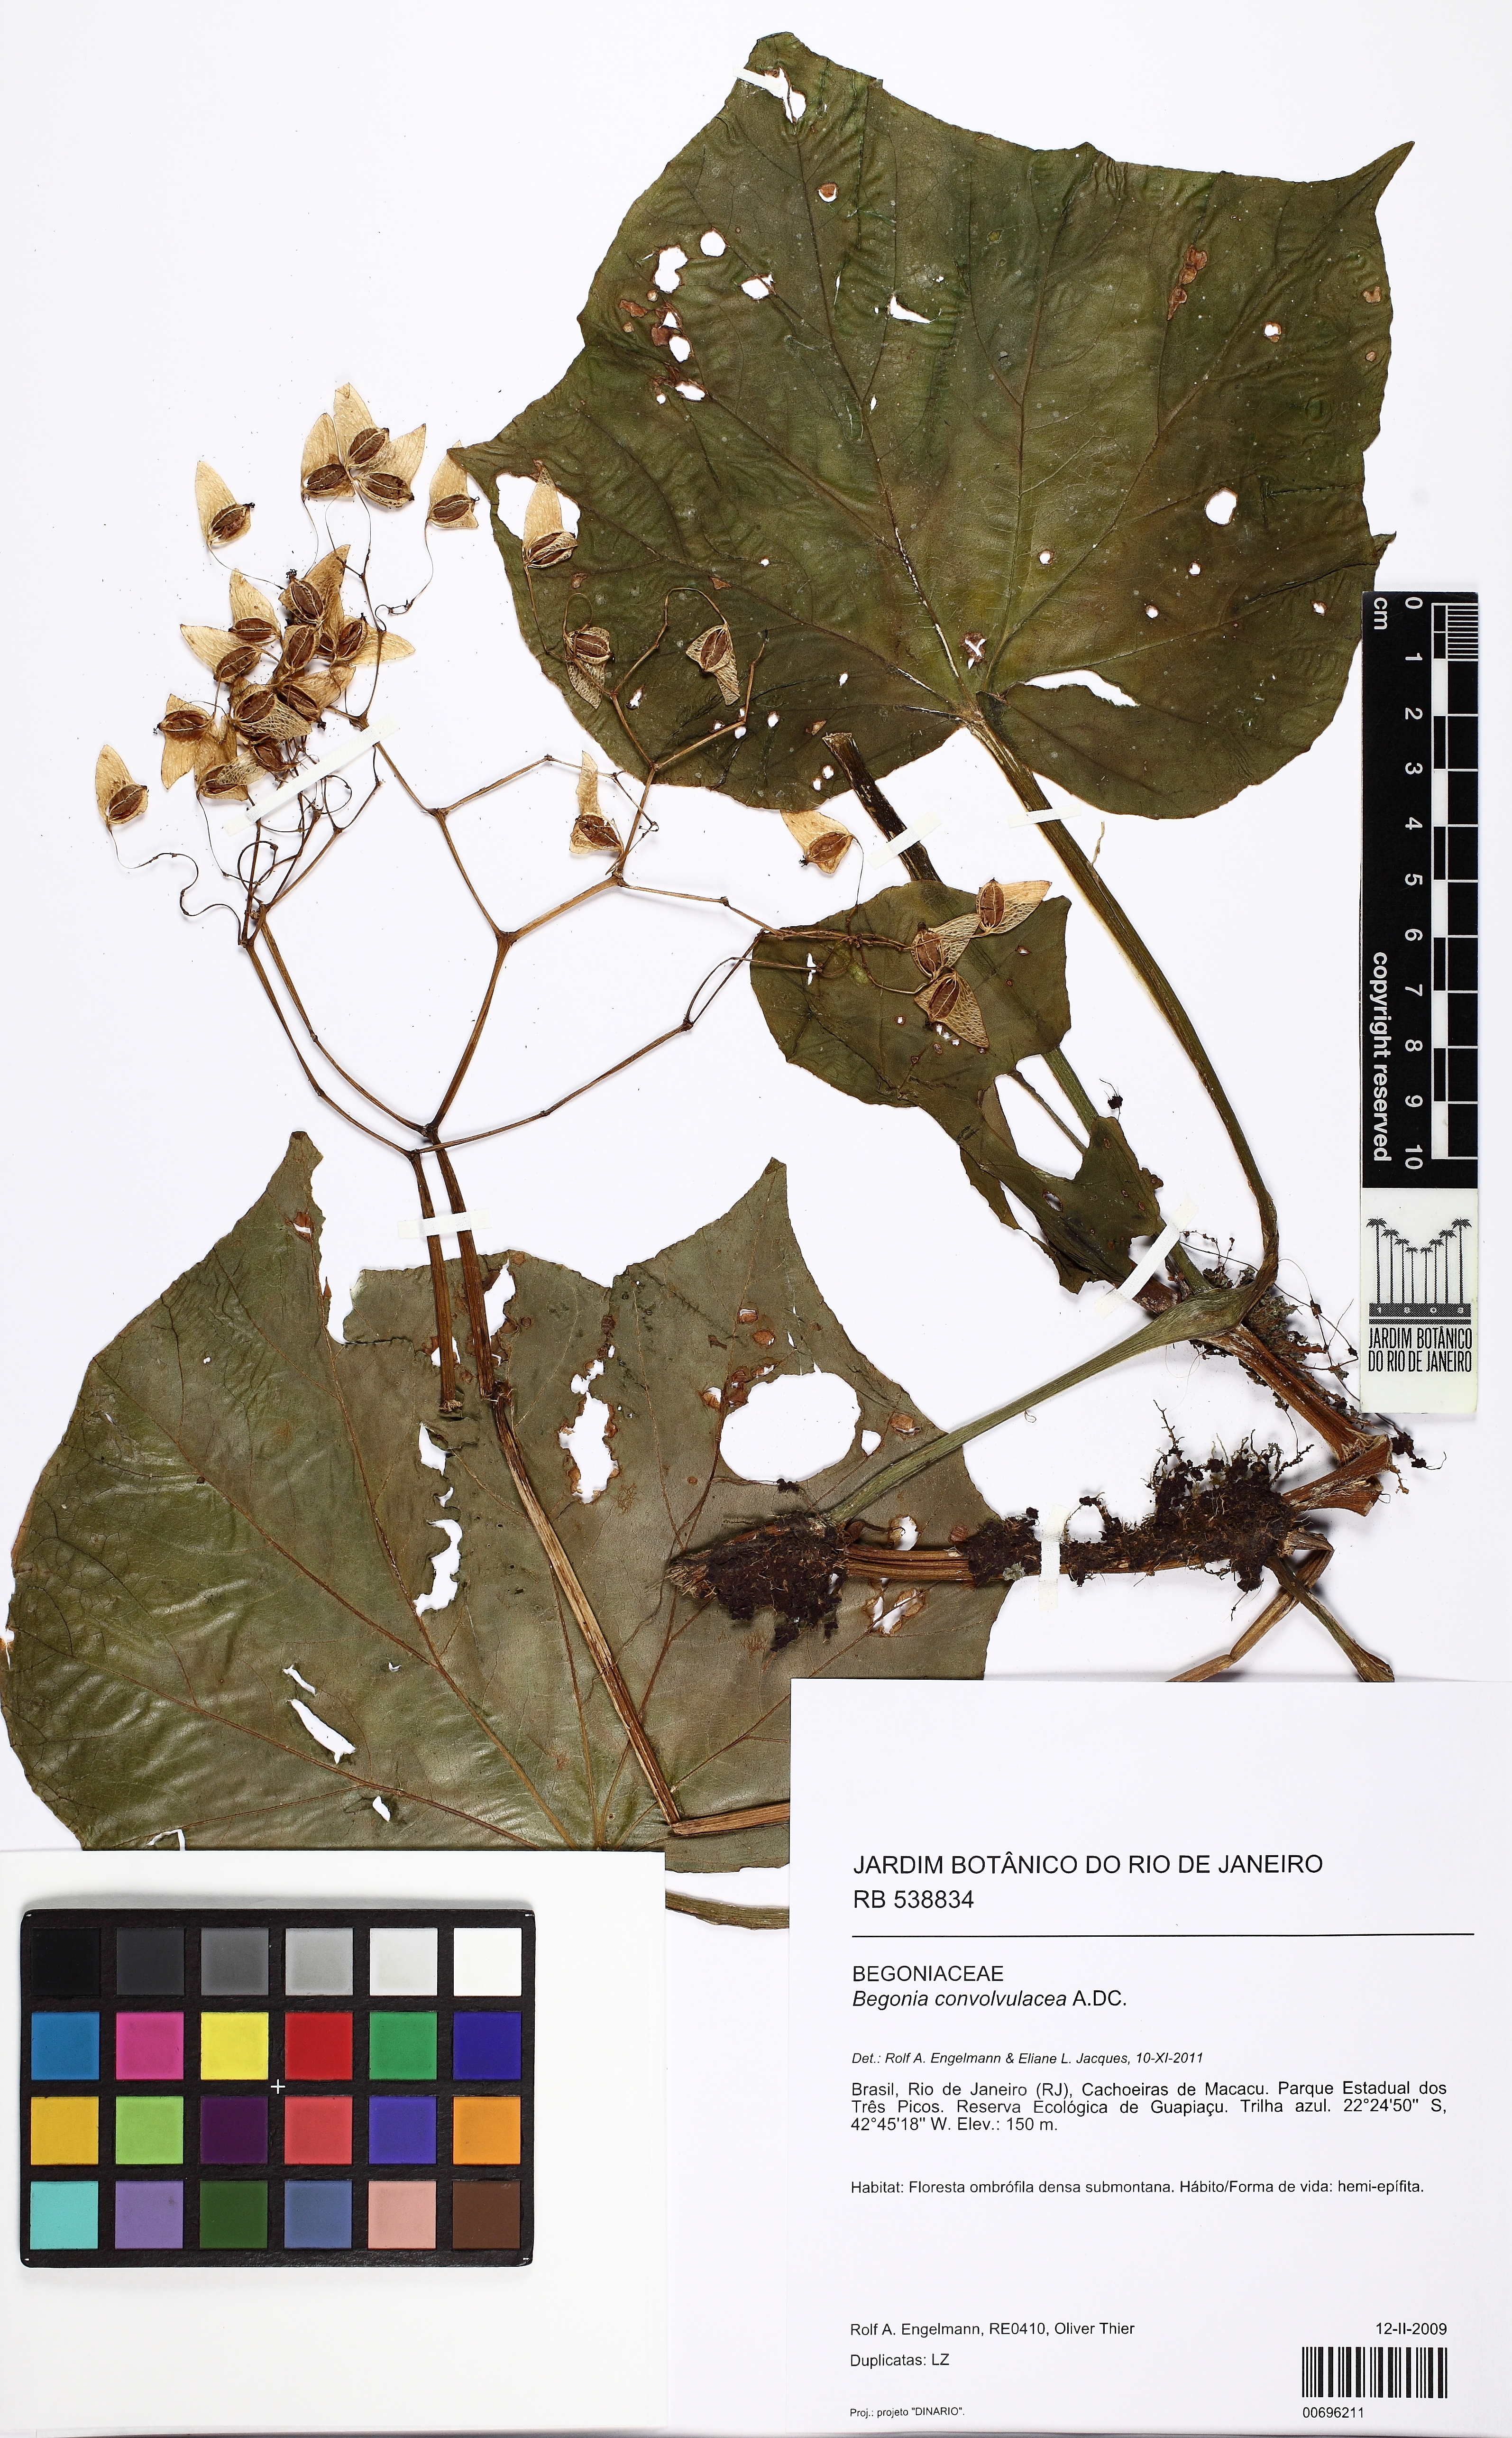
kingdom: Plantae
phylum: Tracheophyta
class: Magnoliopsida
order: Cucurbitales
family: Begoniaceae
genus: Begonia
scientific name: Begonia convolvulacea
